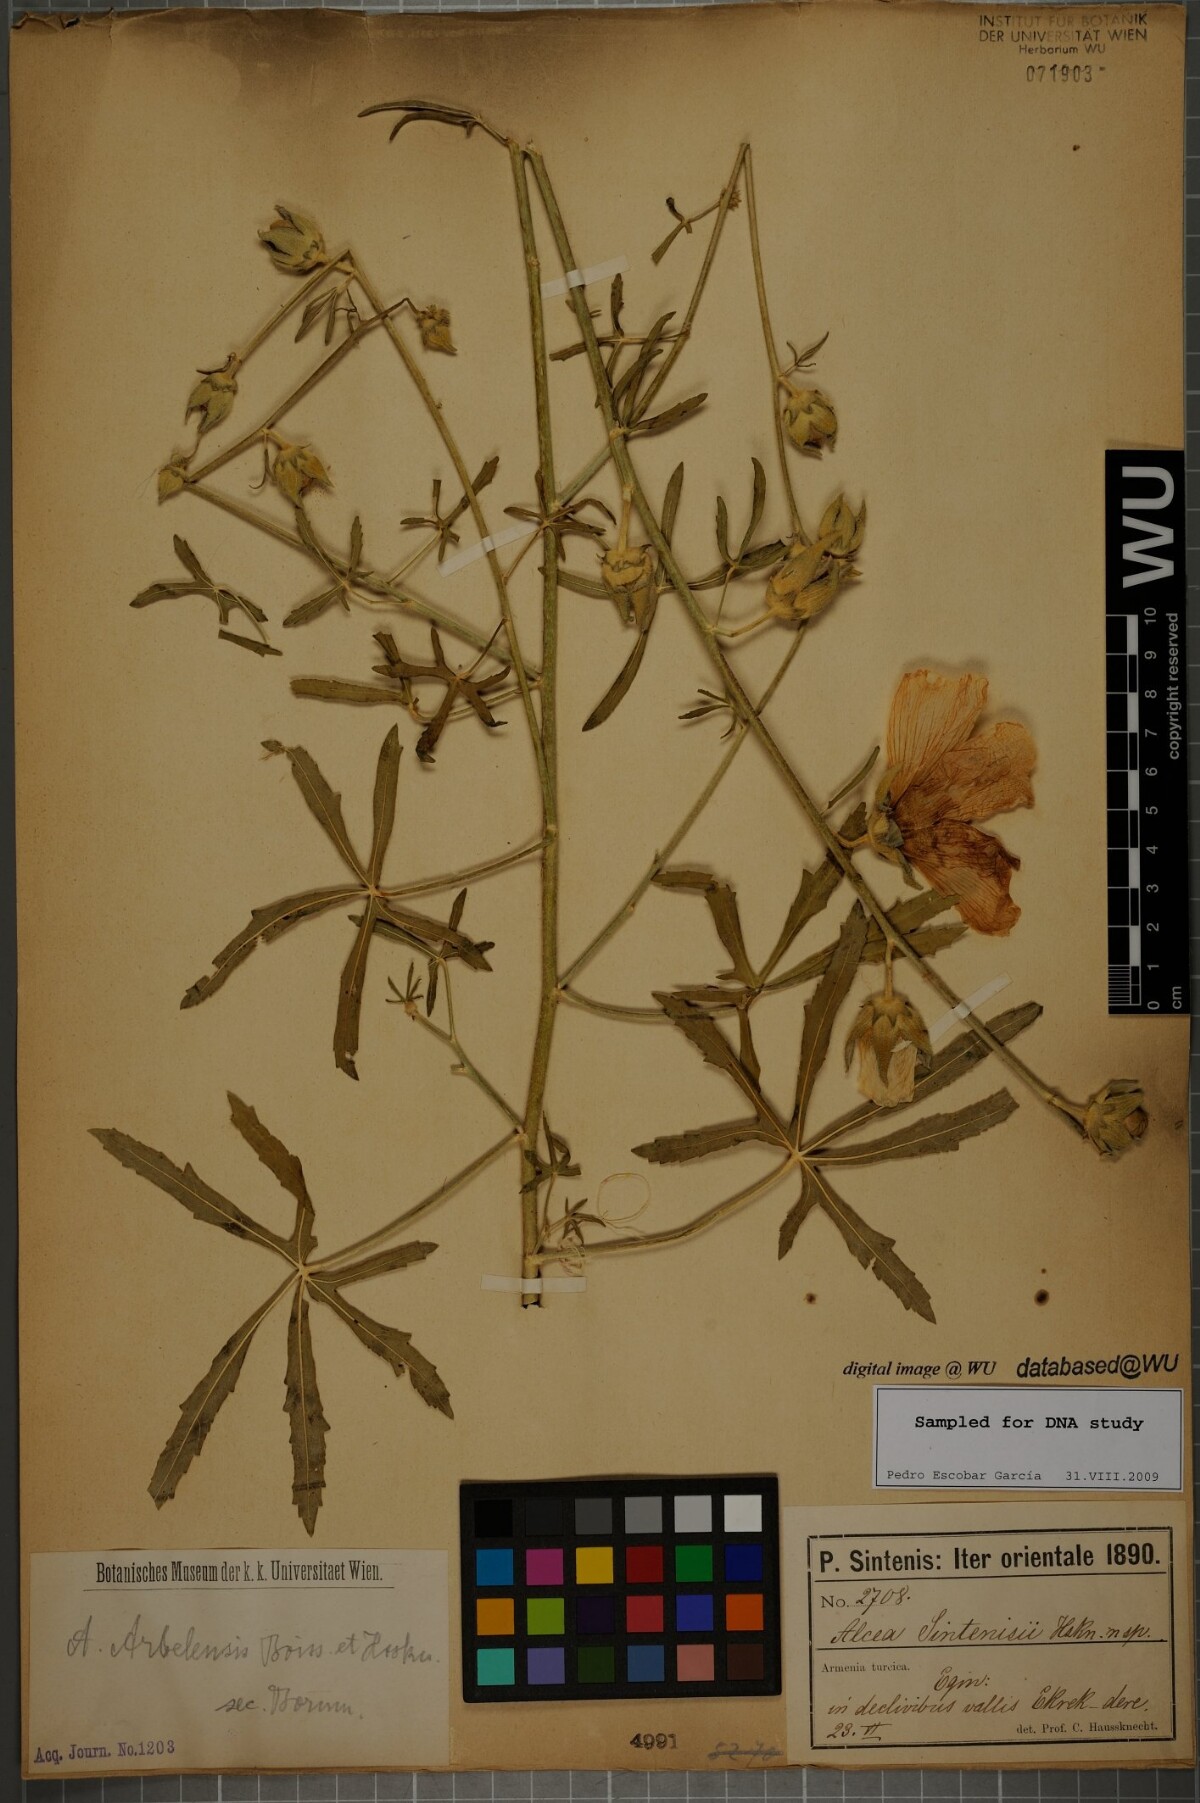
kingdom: Plantae
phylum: Tracheophyta
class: Magnoliopsida
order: Malvales
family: Malvaceae
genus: Alcea
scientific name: Alcea arbelensis
